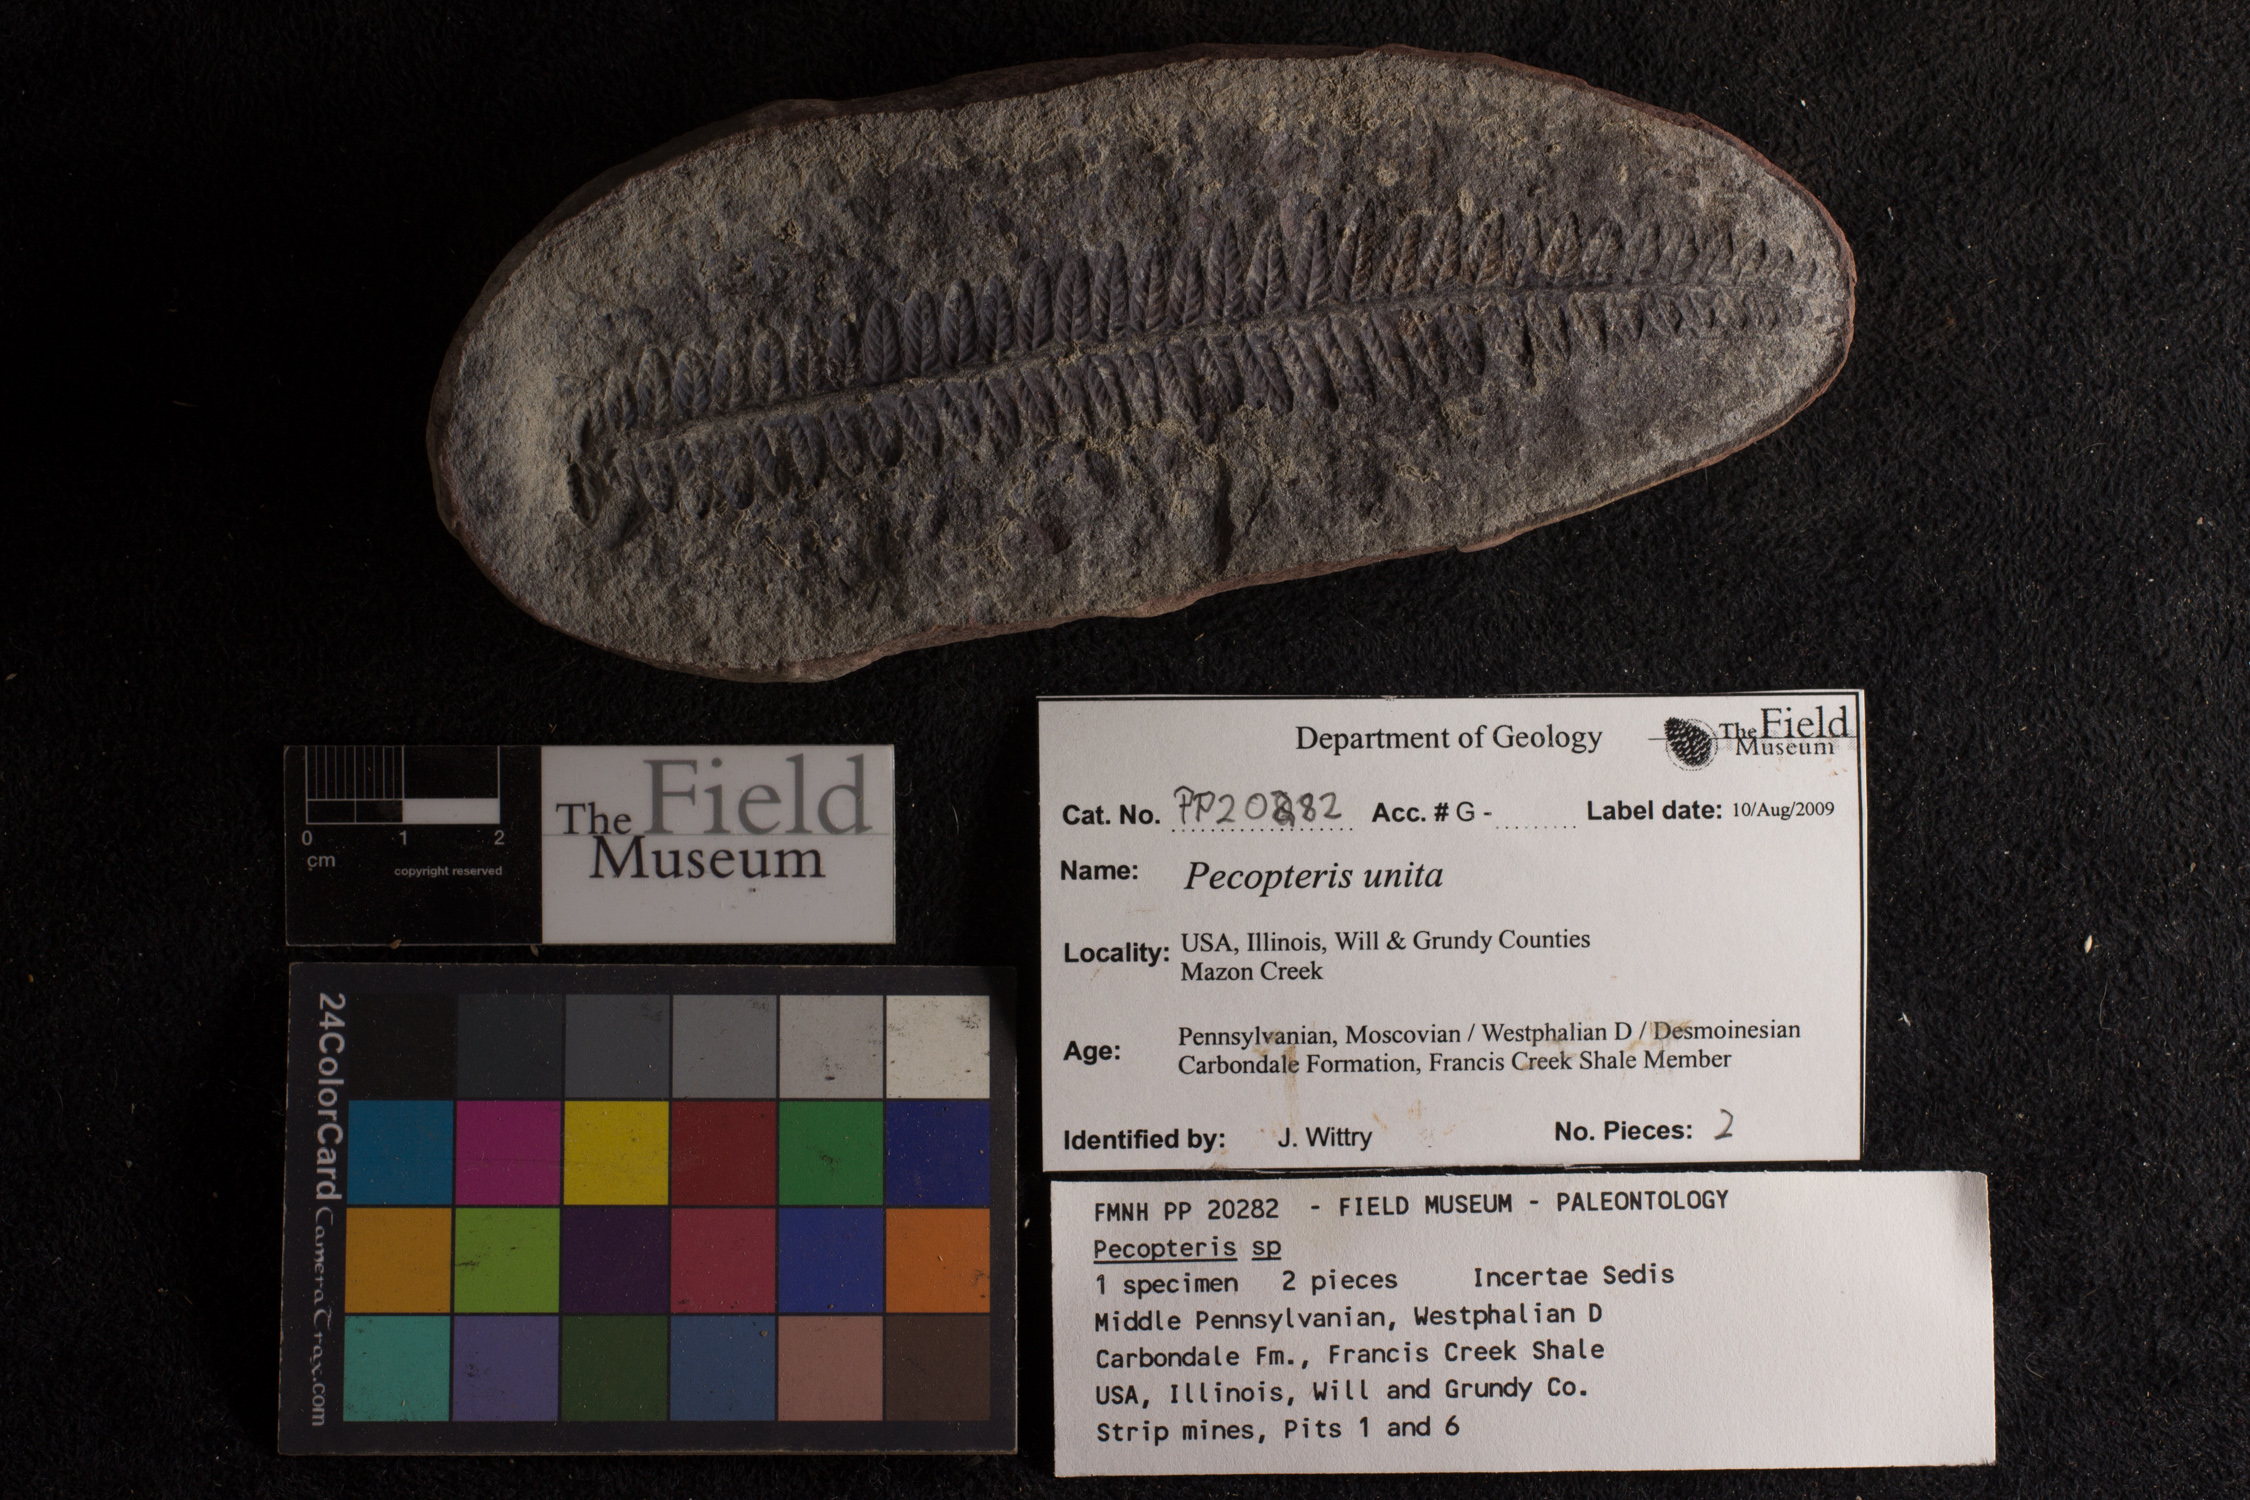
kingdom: Plantae
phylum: Tracheophyta
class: Polypodiopsida
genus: Diplazites
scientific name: Diplazites
